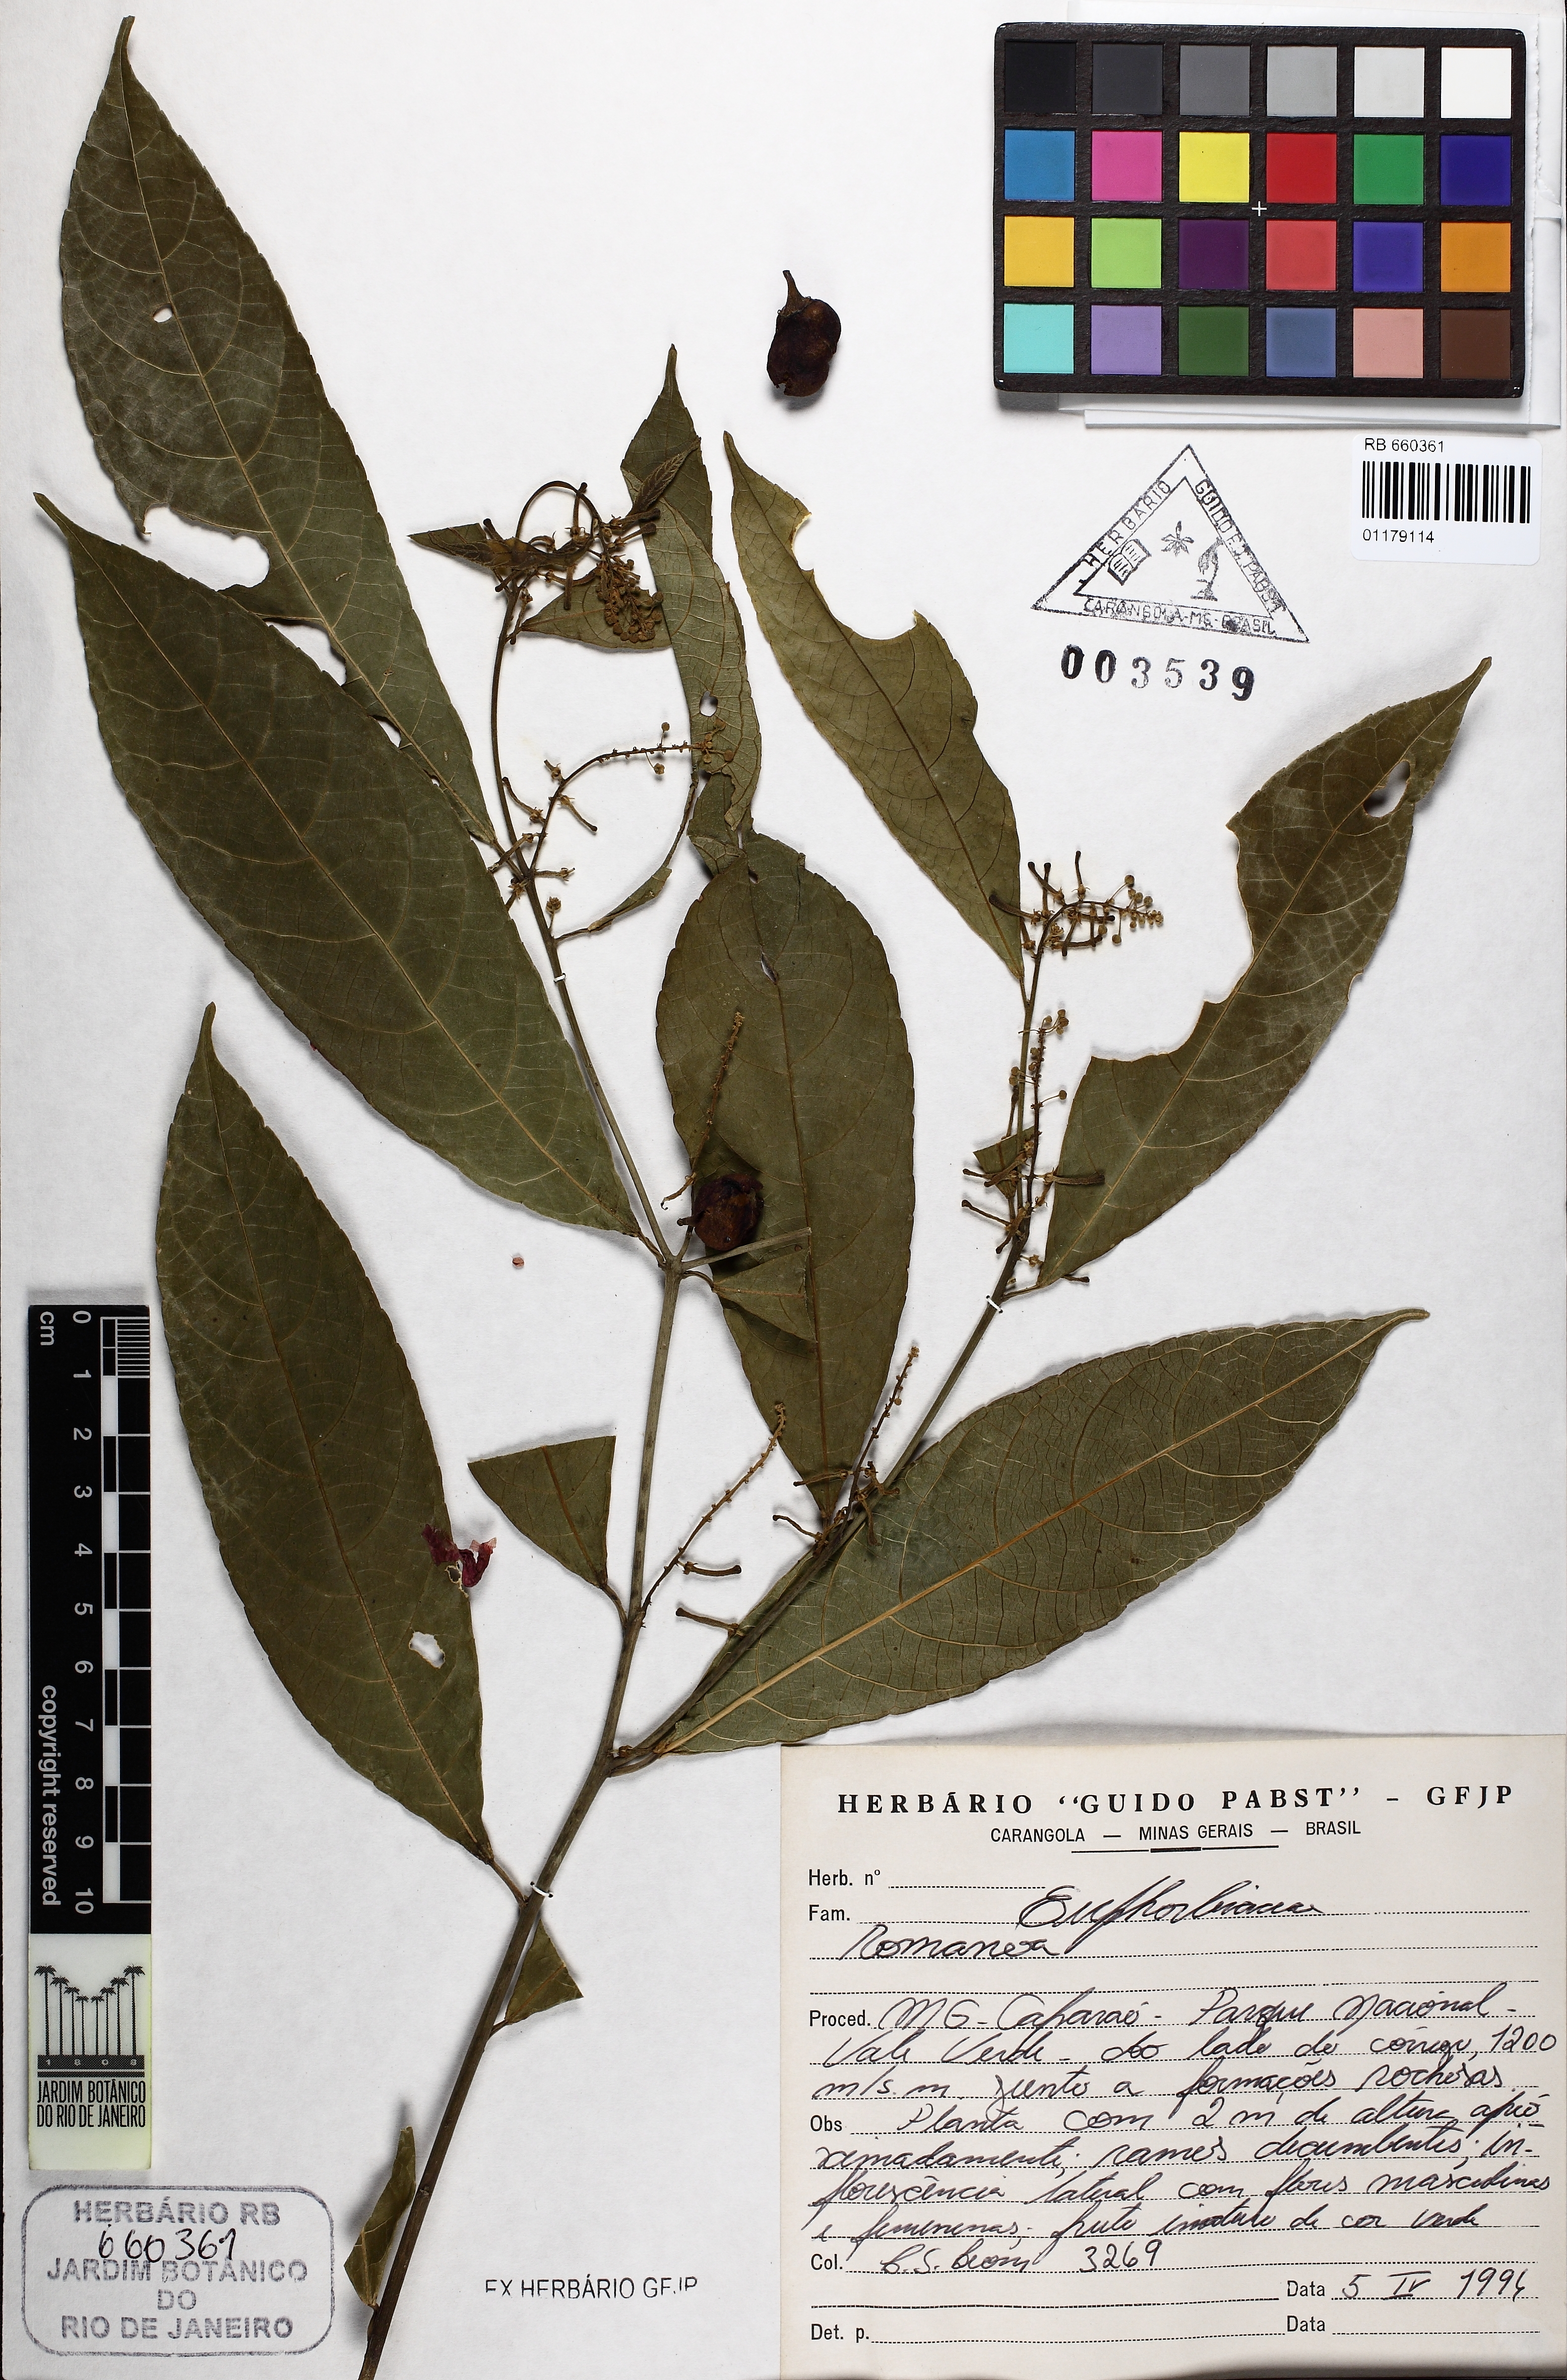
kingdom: Plantae
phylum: Tracheophyta
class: Magnoliopsida
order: Malpighiales
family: Euphorbiaceae
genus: Romanoa
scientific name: Romanoa
